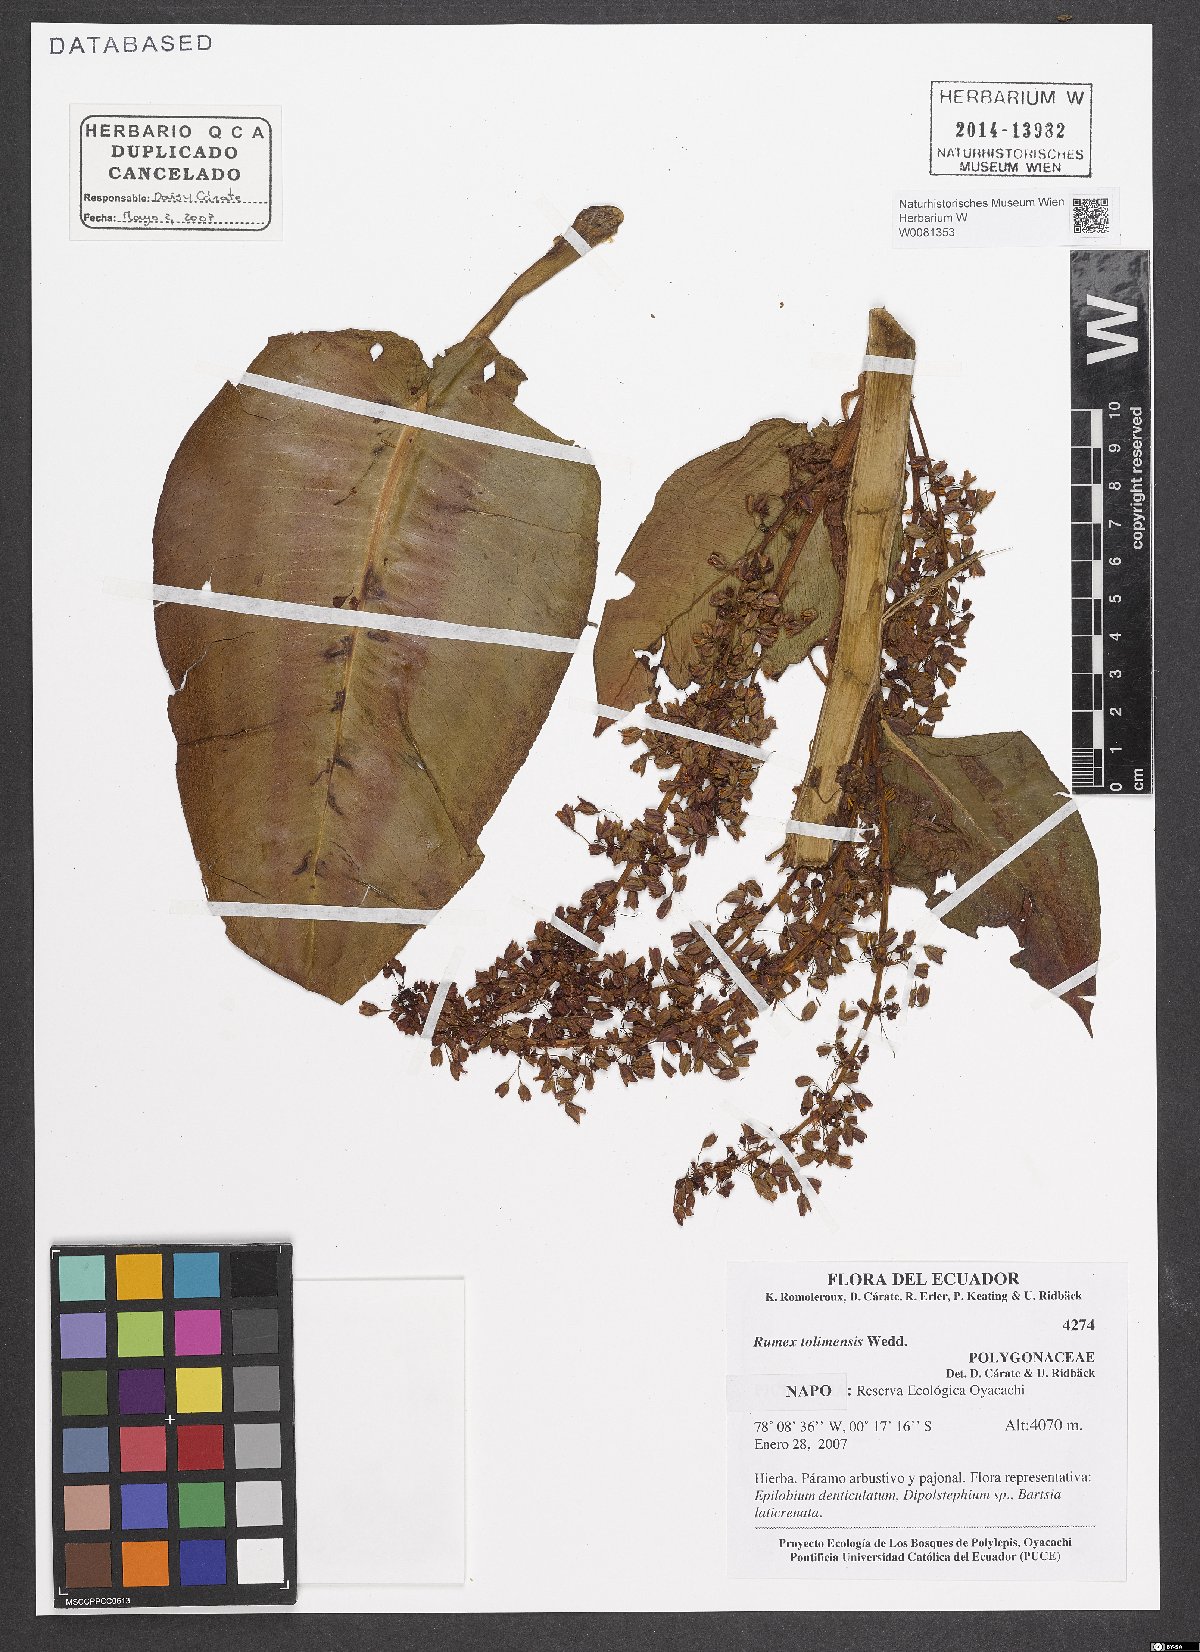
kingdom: Plantae
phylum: Tracheophyta
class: Magnoliopsida
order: Caryophyllales
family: Polygonaceae
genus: Rumex
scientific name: Rumex tolimensis
